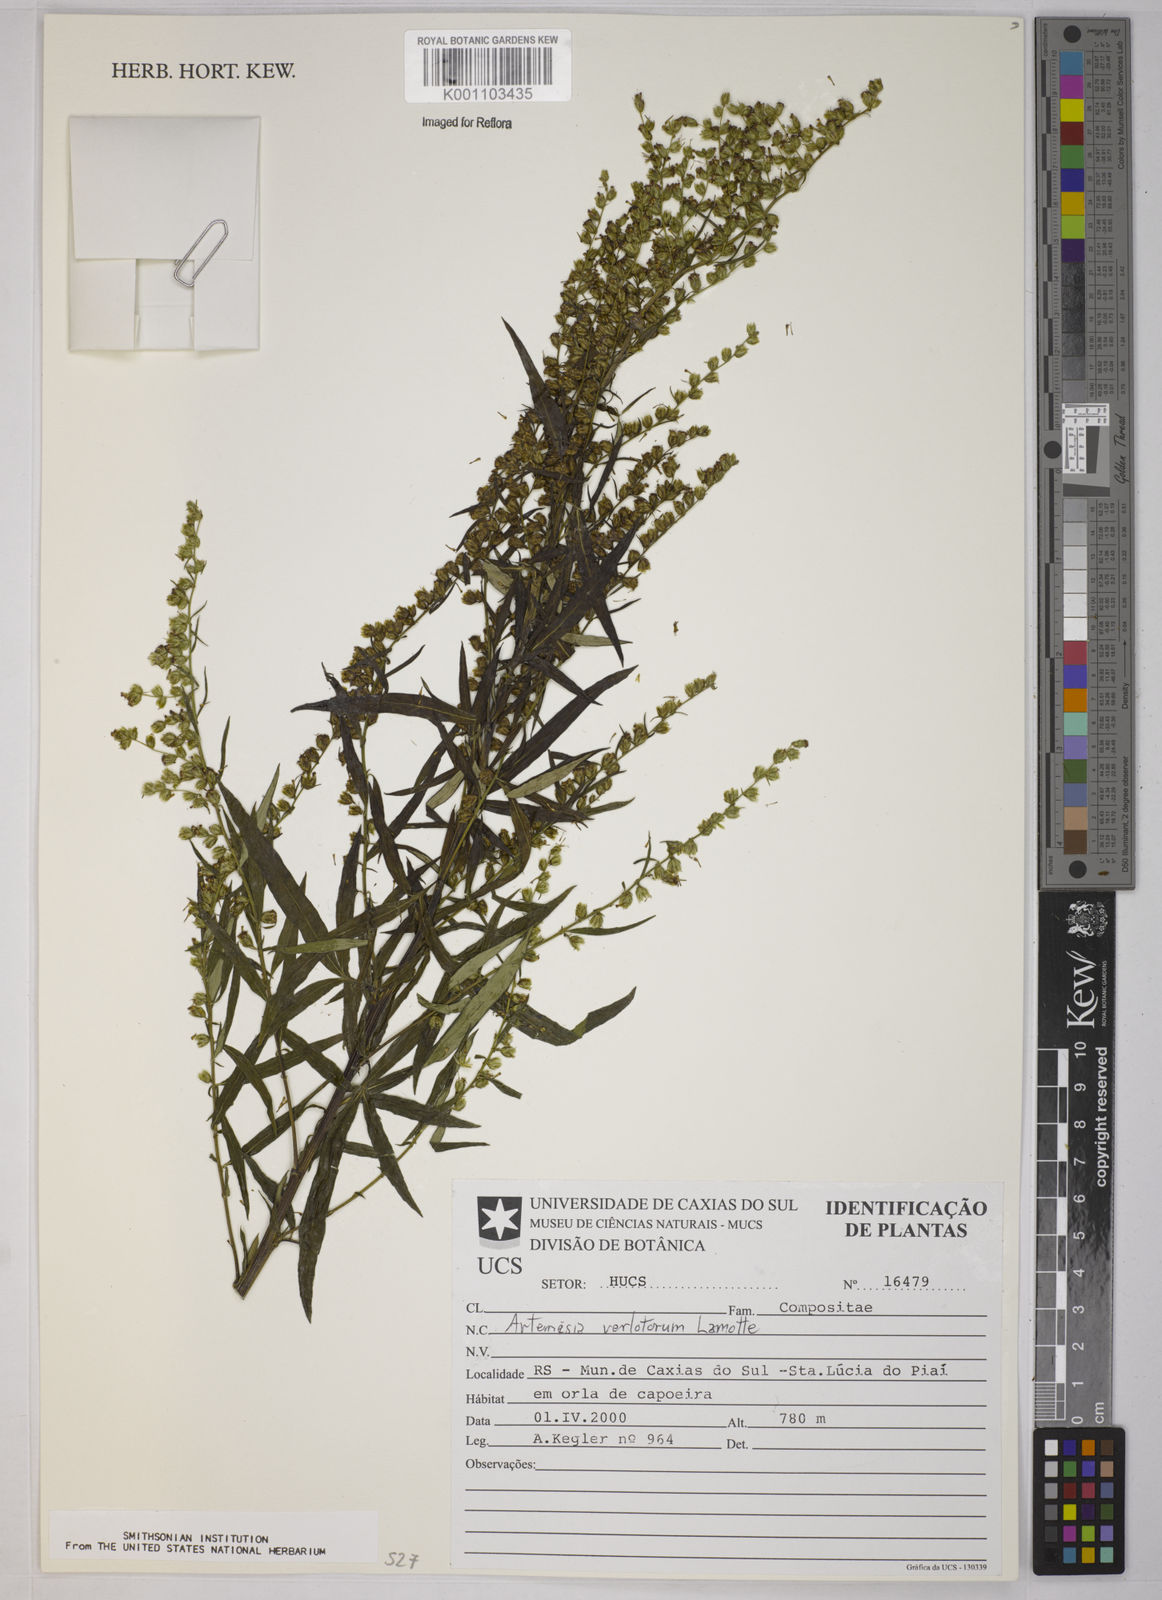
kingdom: Plantae
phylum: Tracheophyta
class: Magnoliopsida
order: Asterales
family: Asteraceae
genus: Artemisia
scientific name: Artemisia verlotiorum
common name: Chinese mugwort
